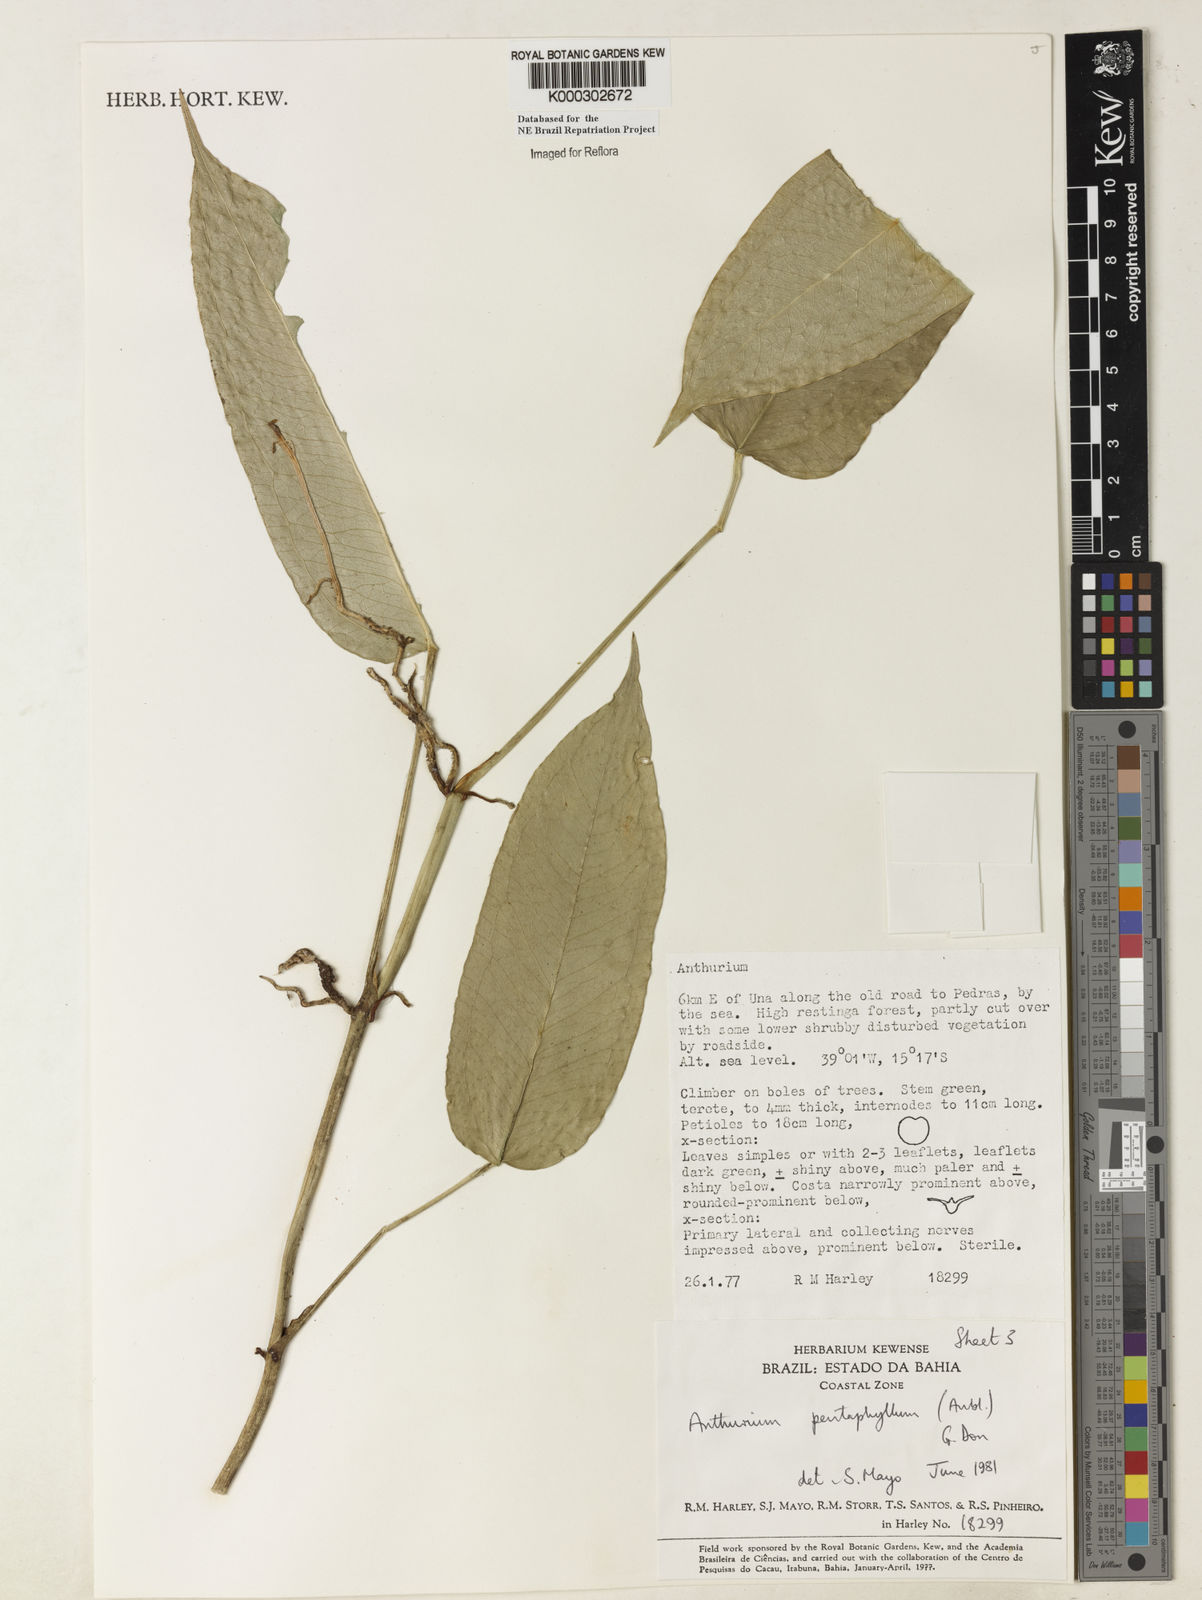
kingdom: Plantae
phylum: Tracheophyta
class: Liliopsida
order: Alismatales
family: Araceae
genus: Anthurium
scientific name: Anthurium pentaphyllum
